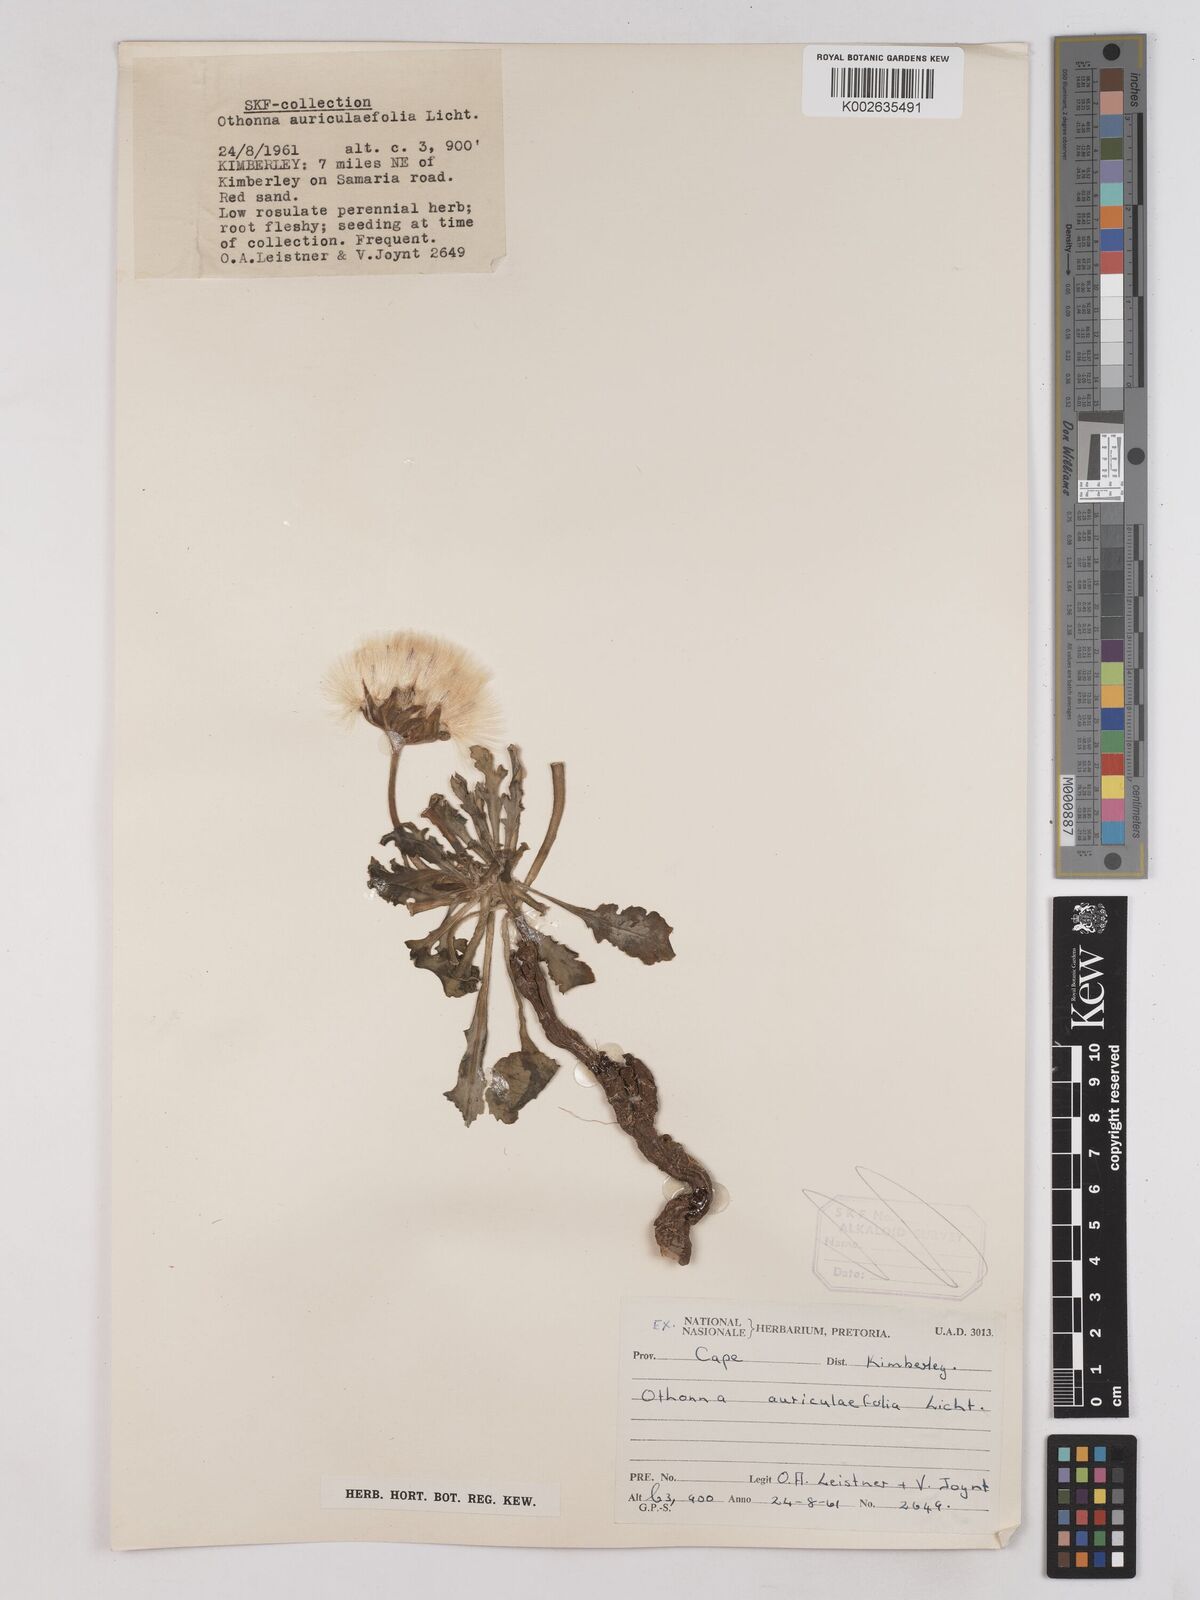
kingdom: Plantae
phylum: Tracheophyta
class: Magnoliopsida
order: Asterales
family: Asteraceae
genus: Othonna
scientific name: Othonna auriculifolia
